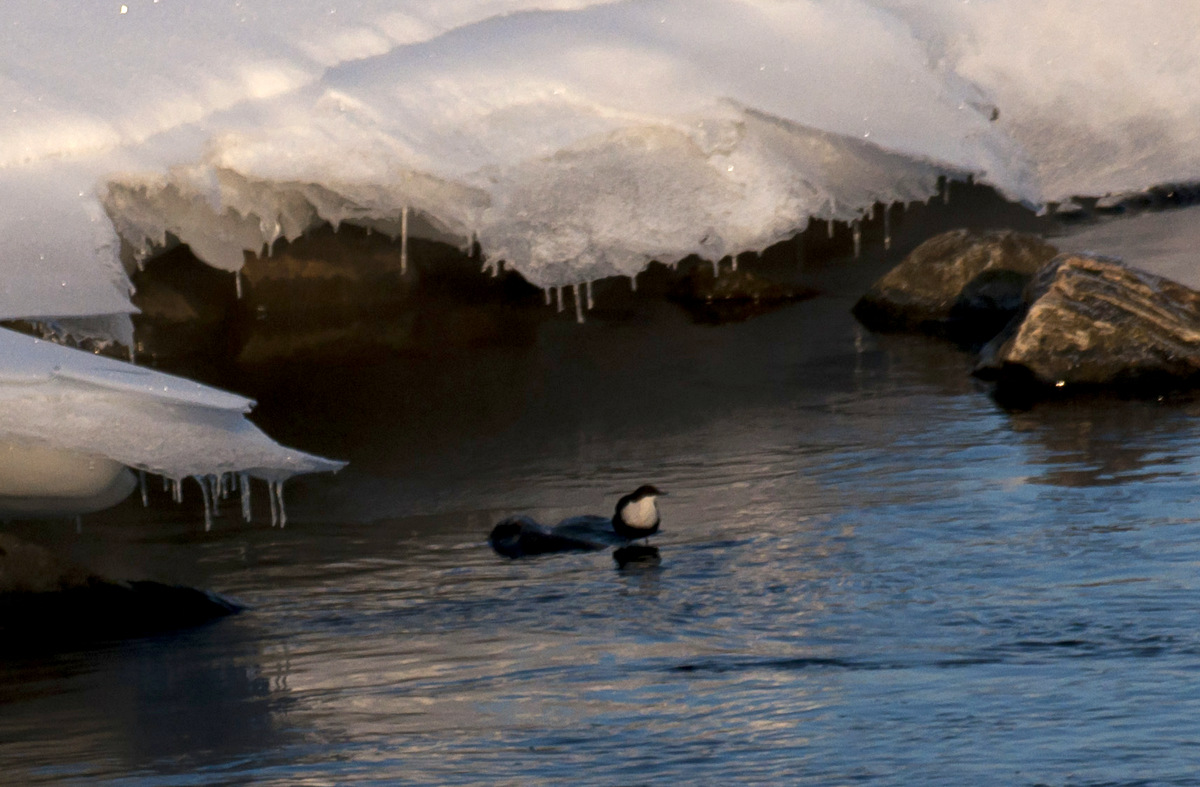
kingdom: Animalia
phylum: Chordata
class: Aves
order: Passeriformes
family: Cinclidae
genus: Cinclus
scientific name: Cinclus cinclus
